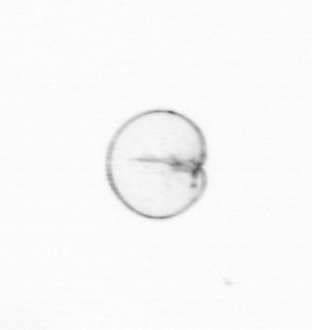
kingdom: Chromista
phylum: Myzozoa
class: Dinophyceae
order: Noctilucales
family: Noctilucaceae
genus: Noctiluca
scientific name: Noctiluca scintillans
